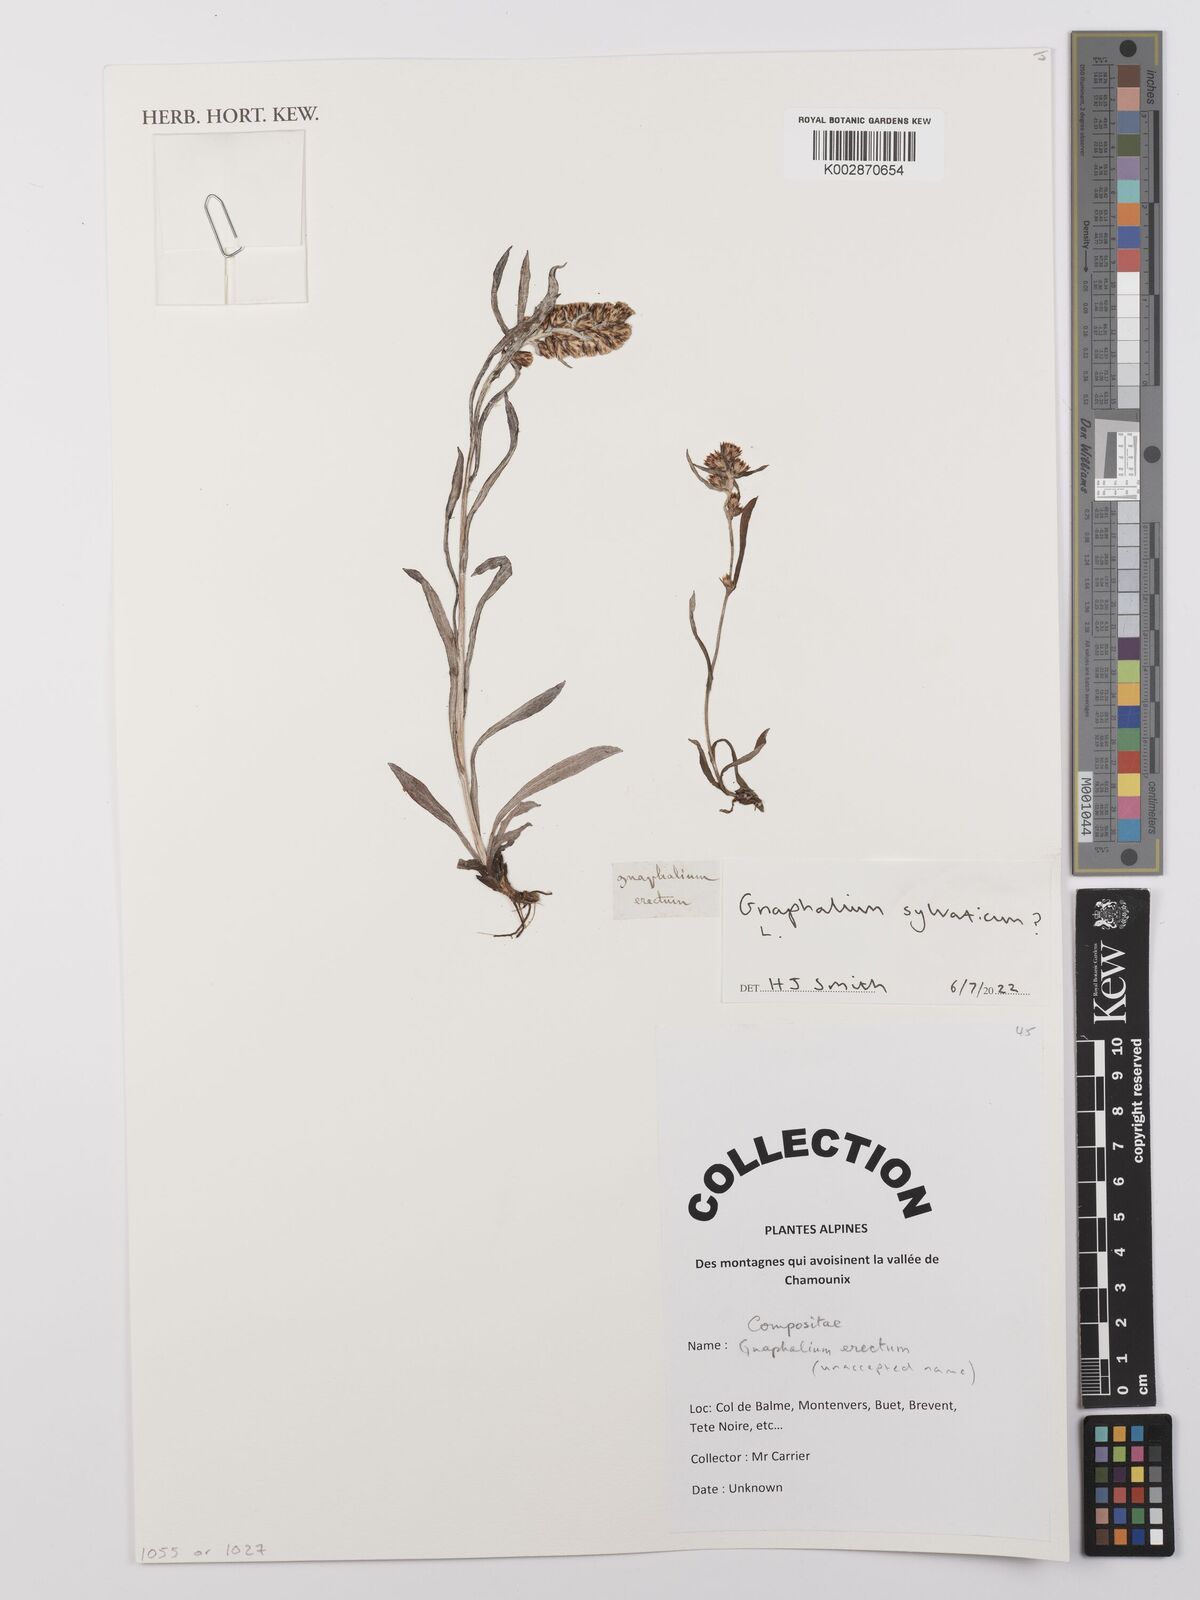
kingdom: Plantae
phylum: Tracheophyta
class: Magnoliopsida
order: Asterales
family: Asteraceae
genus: Omalotheca
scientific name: Omalotheca sylvatica
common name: Heath cudweed
